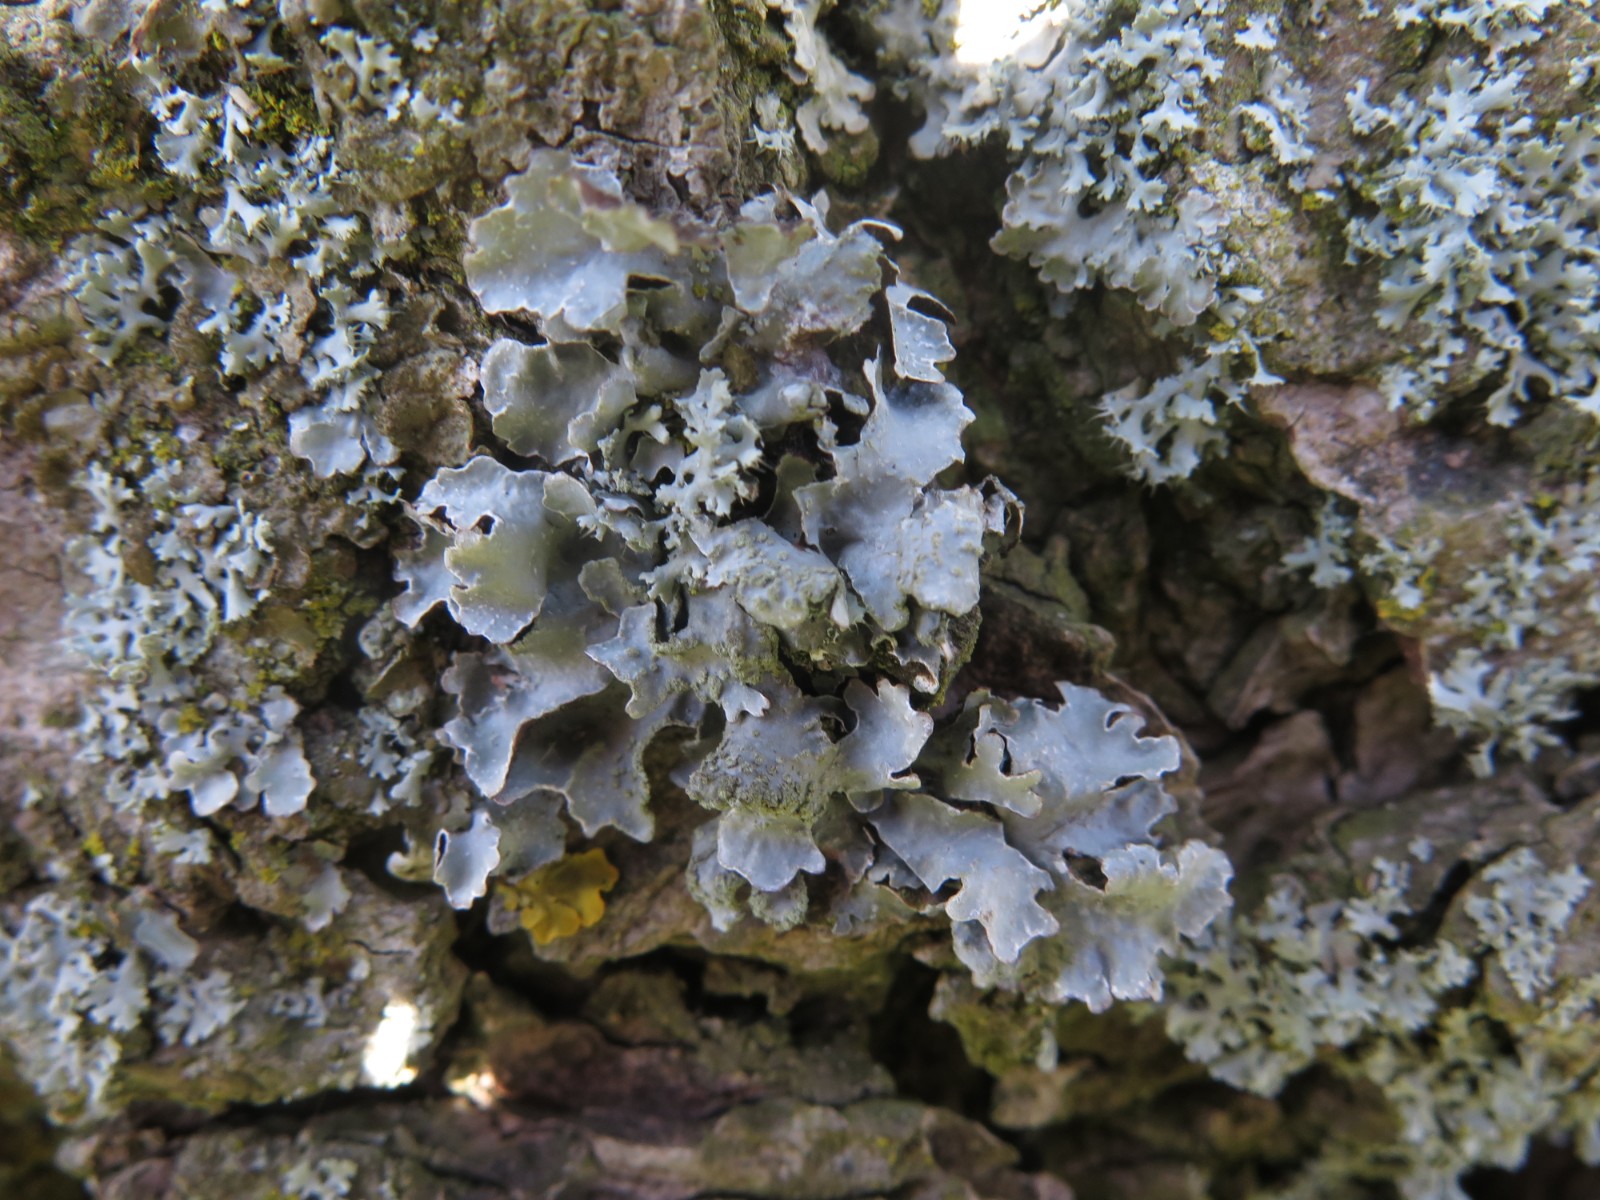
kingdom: Fungi
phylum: Ascomycota
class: Lecanoromycetes
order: Lecanorales
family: Parmeliaceae
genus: Parmelia
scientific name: Parmelia sulcata
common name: rynket skållav
